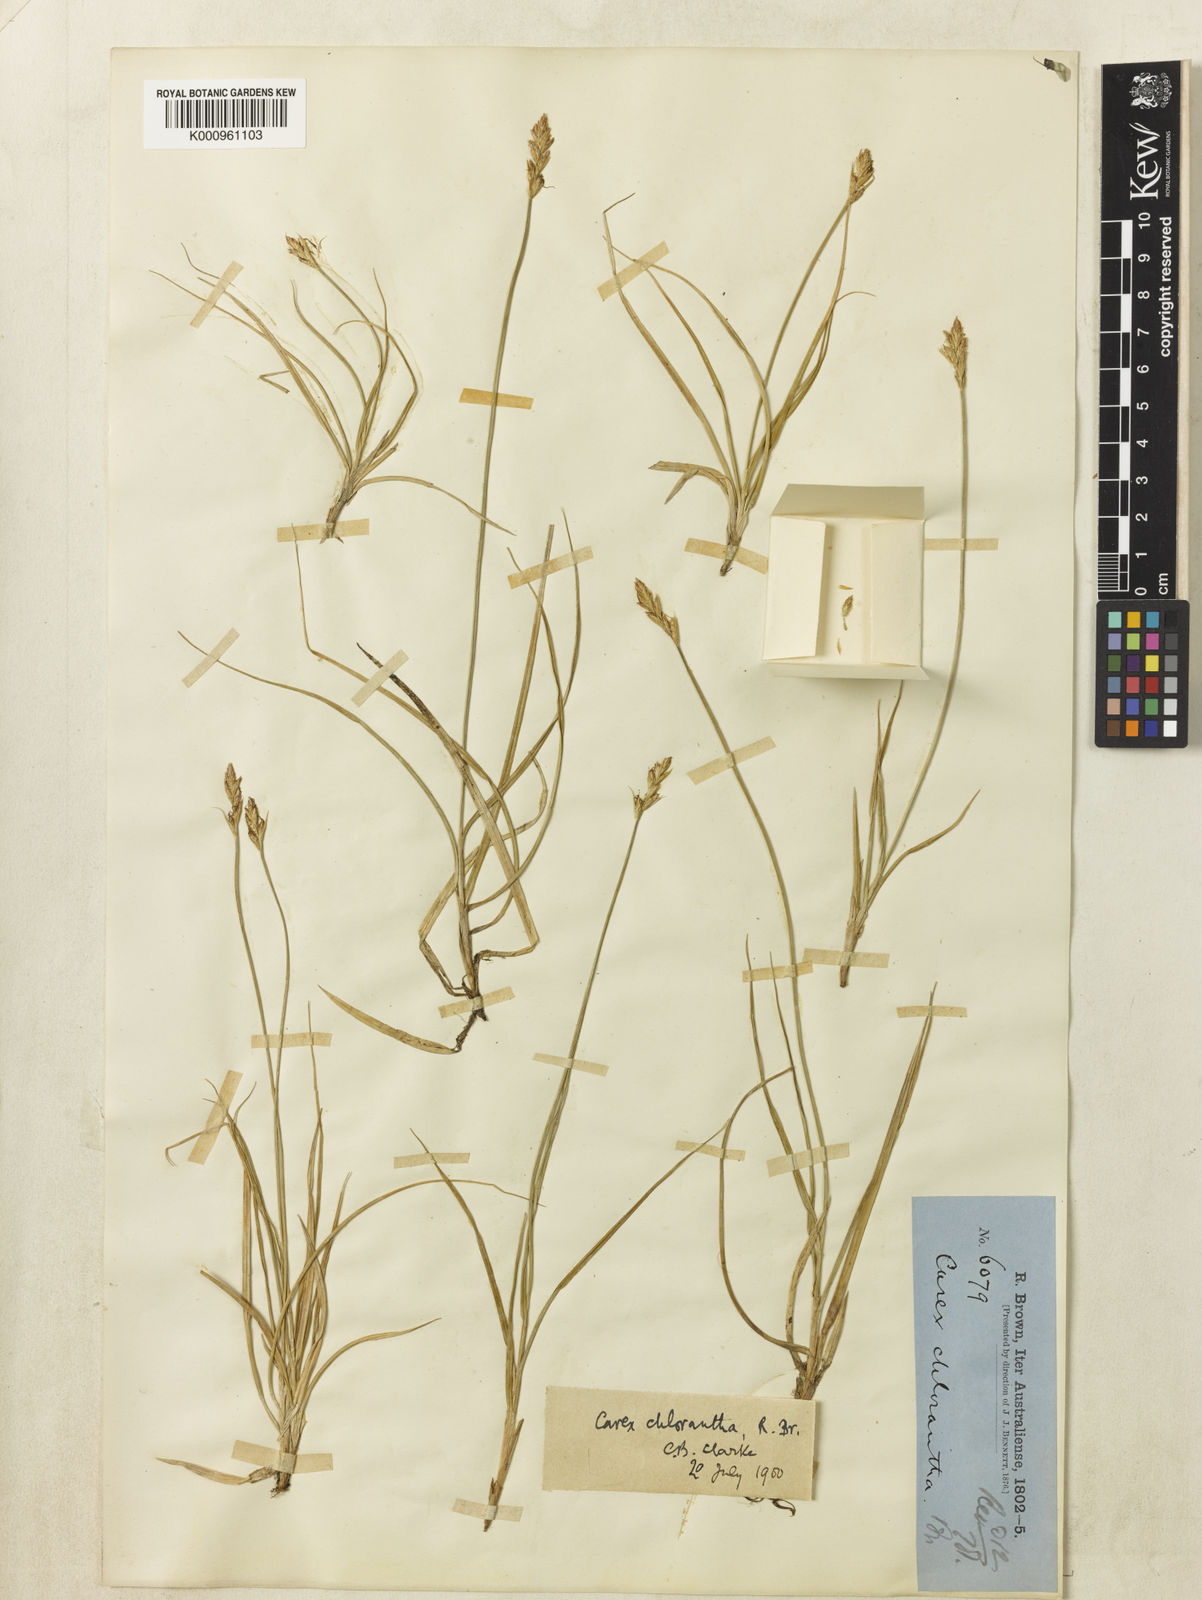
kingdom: Plantae
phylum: Tracheophyta
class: Liliopsida
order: Poales
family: Cyperaceae
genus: Carex
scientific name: Carex chlorantha
